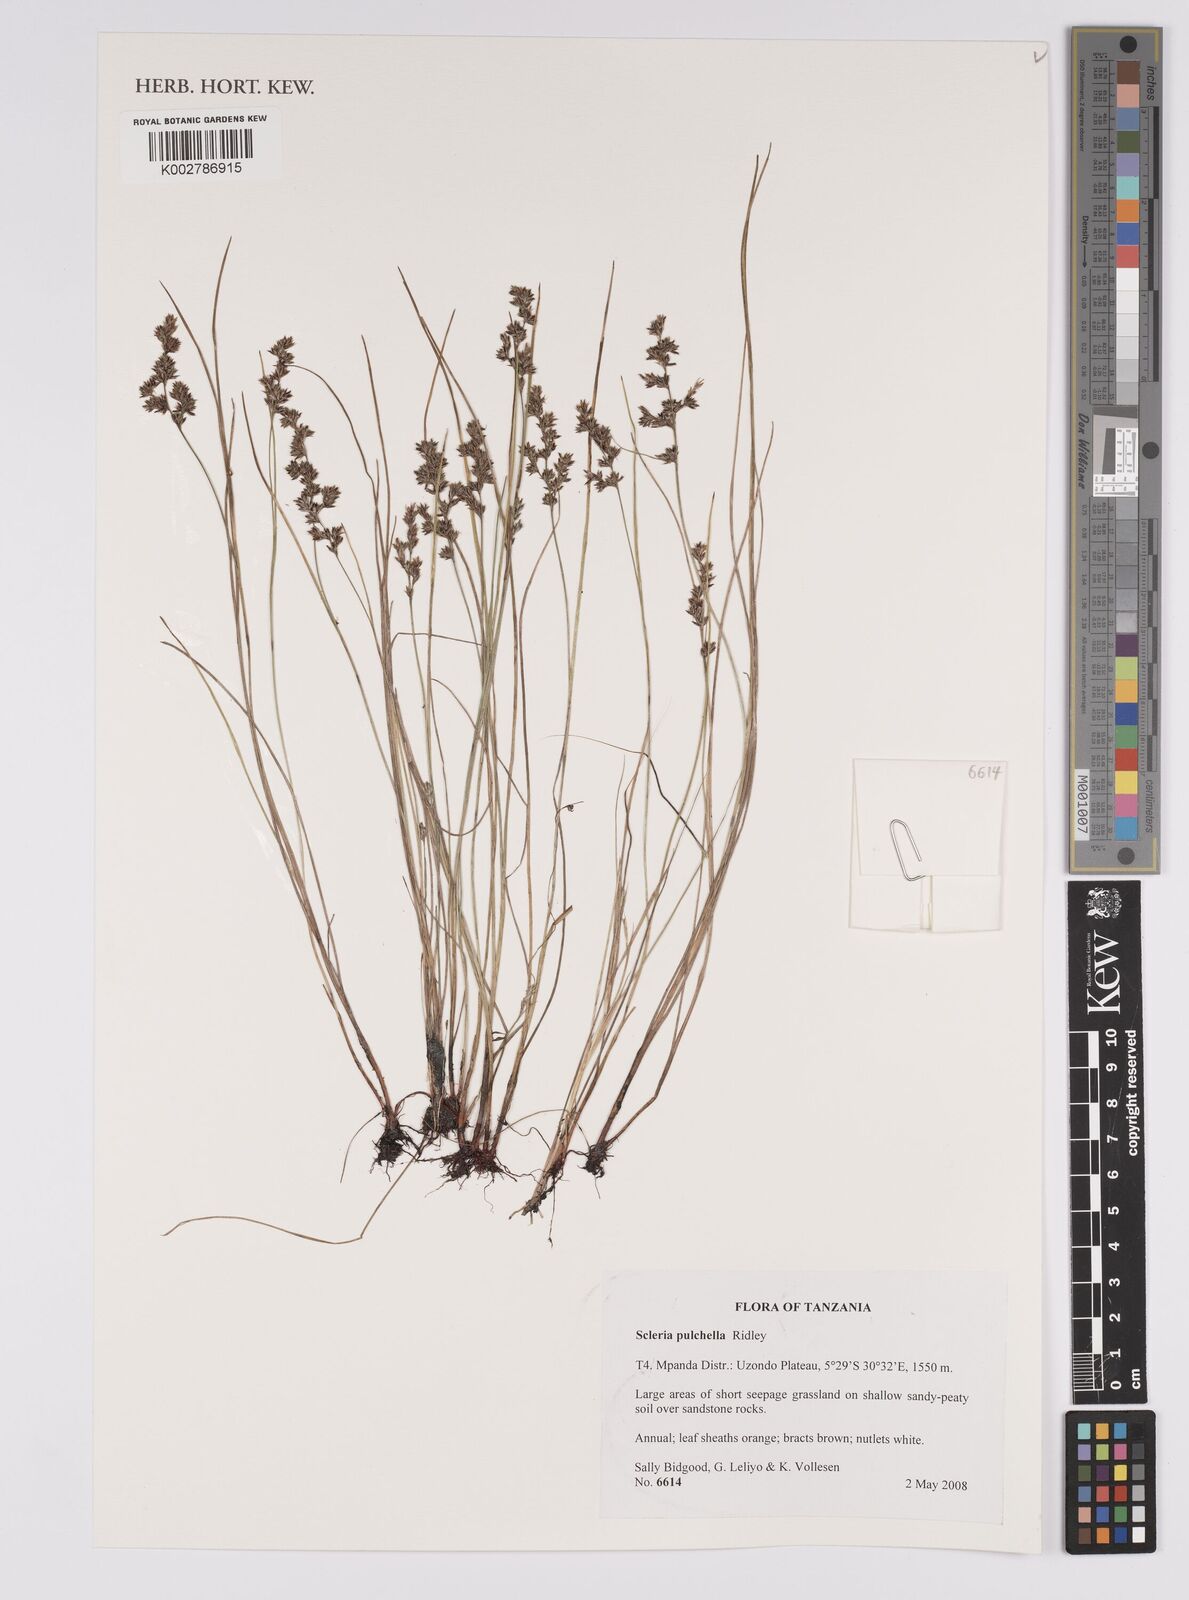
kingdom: Plantae
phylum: Tracheophyta
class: Liliopsida
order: Poales
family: Cyperaceae
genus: Scleria
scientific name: Scleria pulchella
